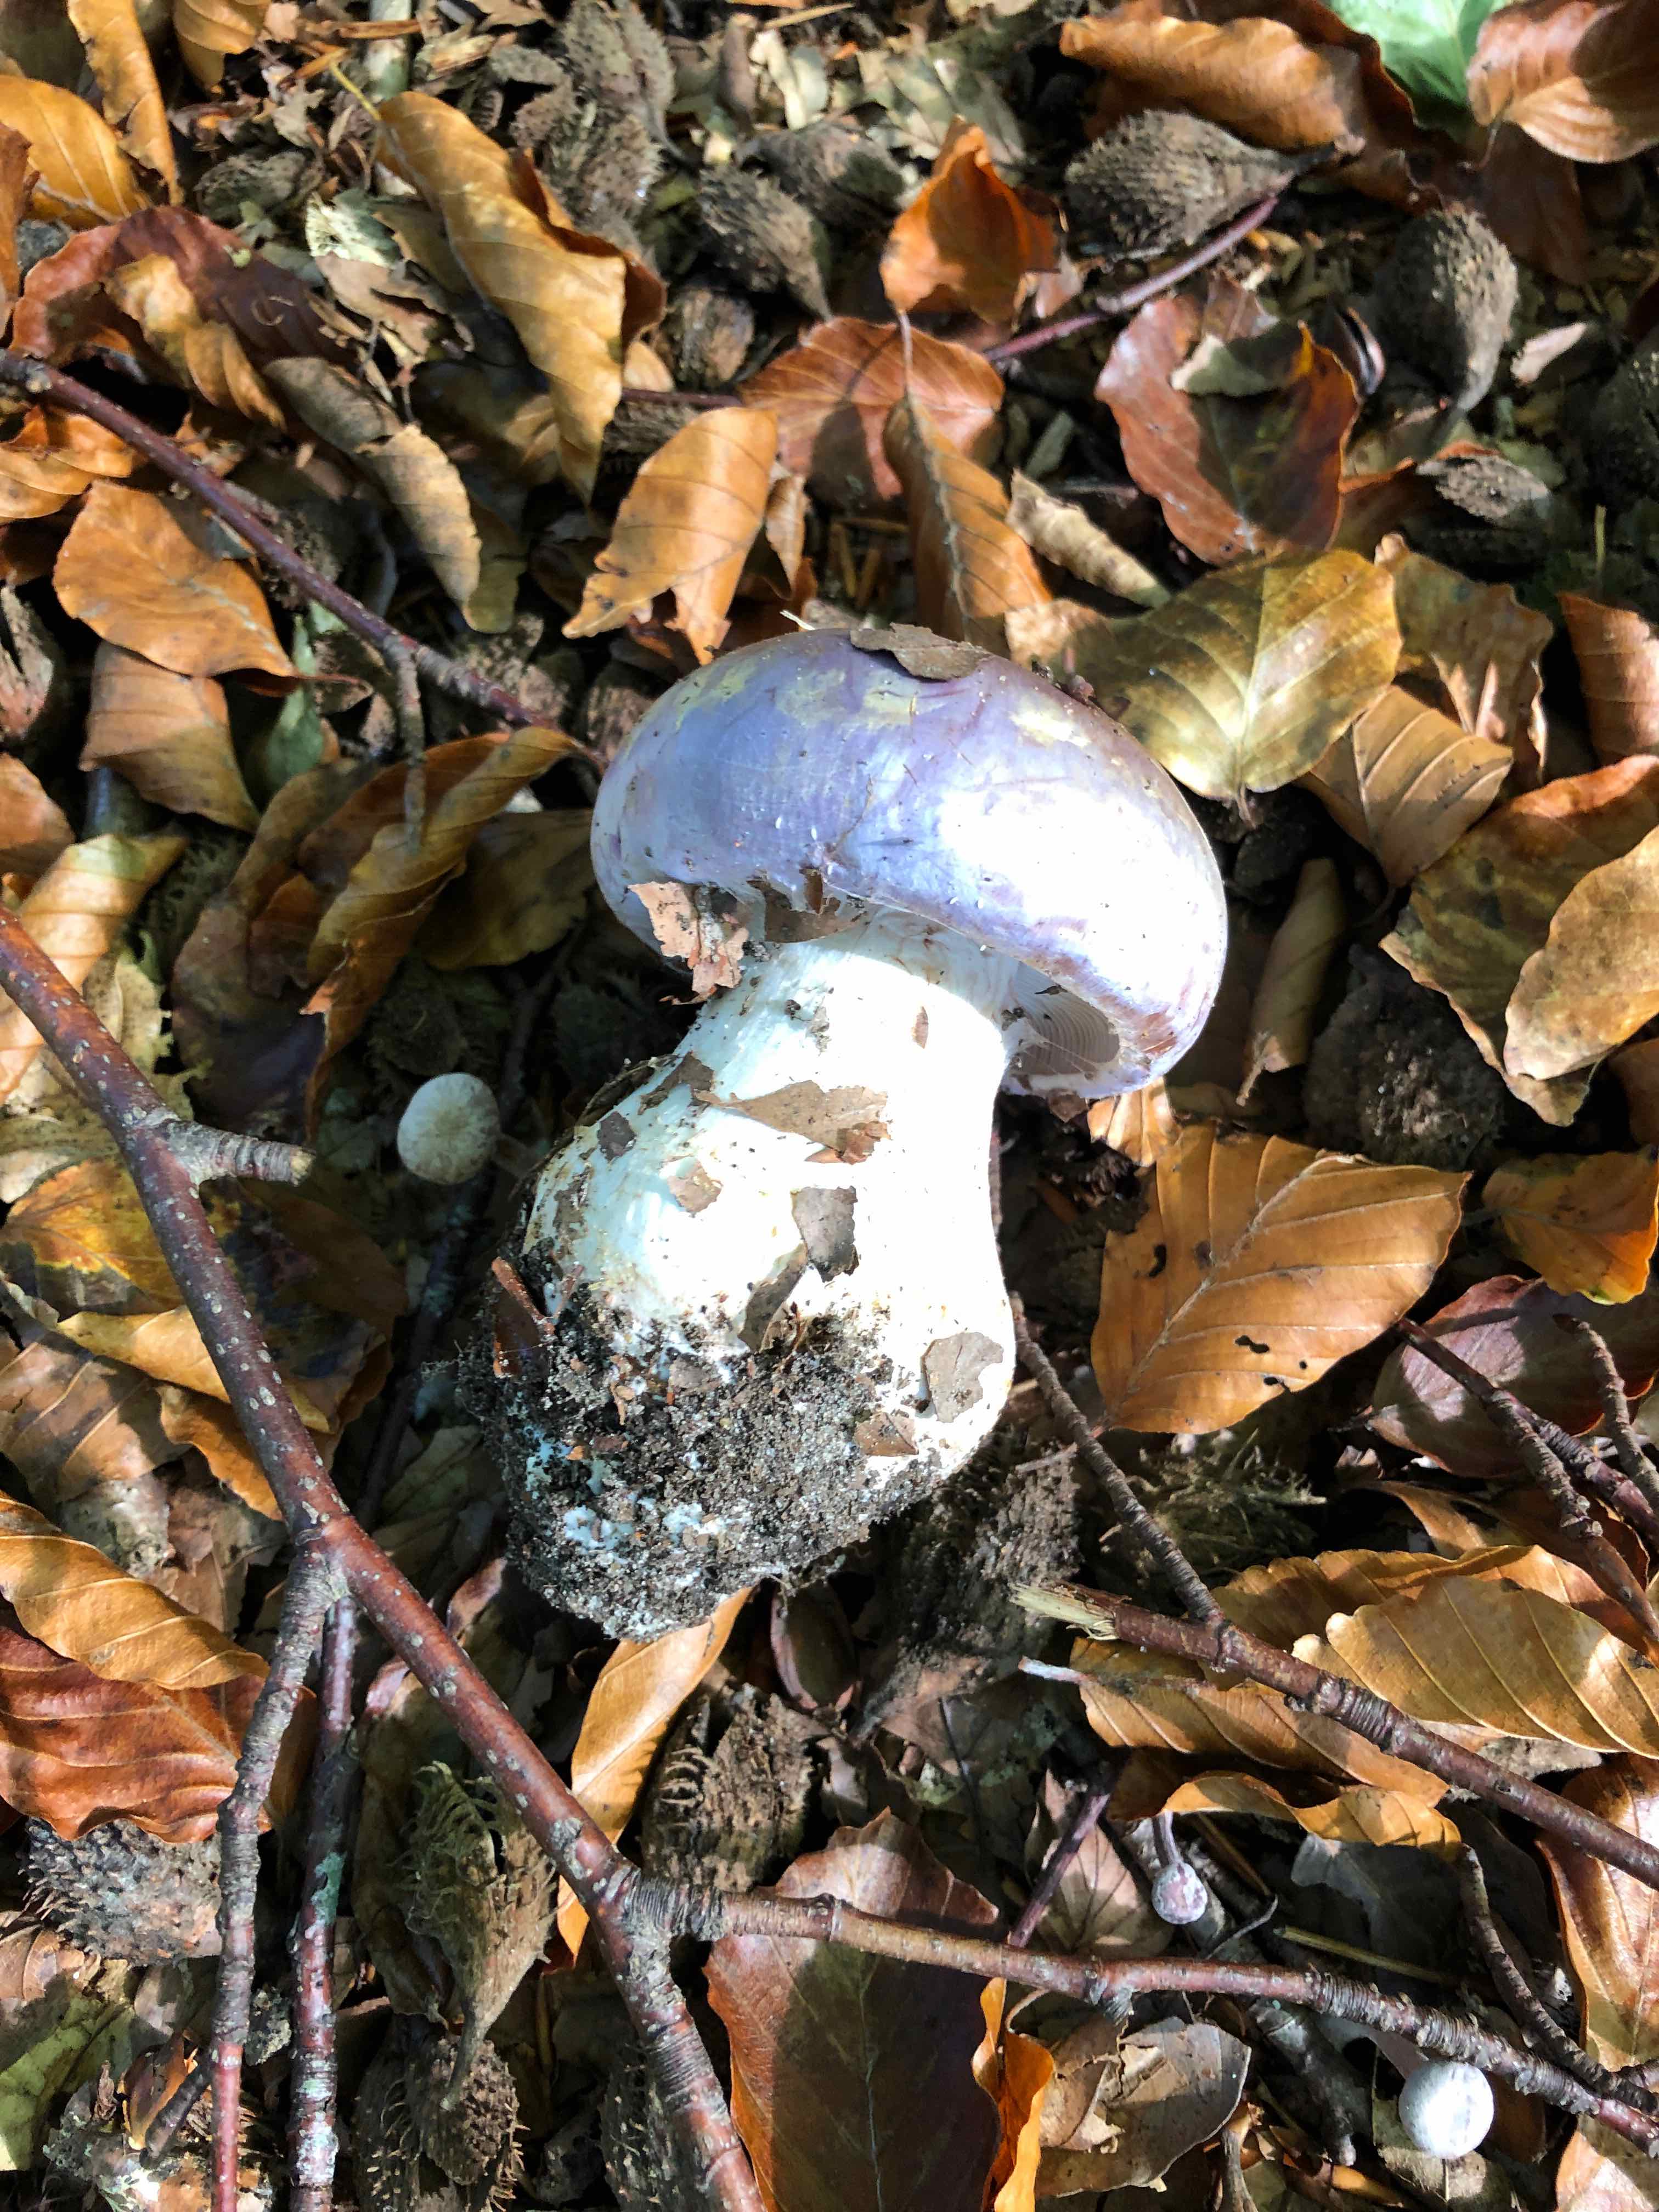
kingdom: Fungi
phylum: Basidiomycota
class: Agaricomycetes
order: Agaricales
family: Cortinariaceae
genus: Cortinarius
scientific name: Cortinarius
